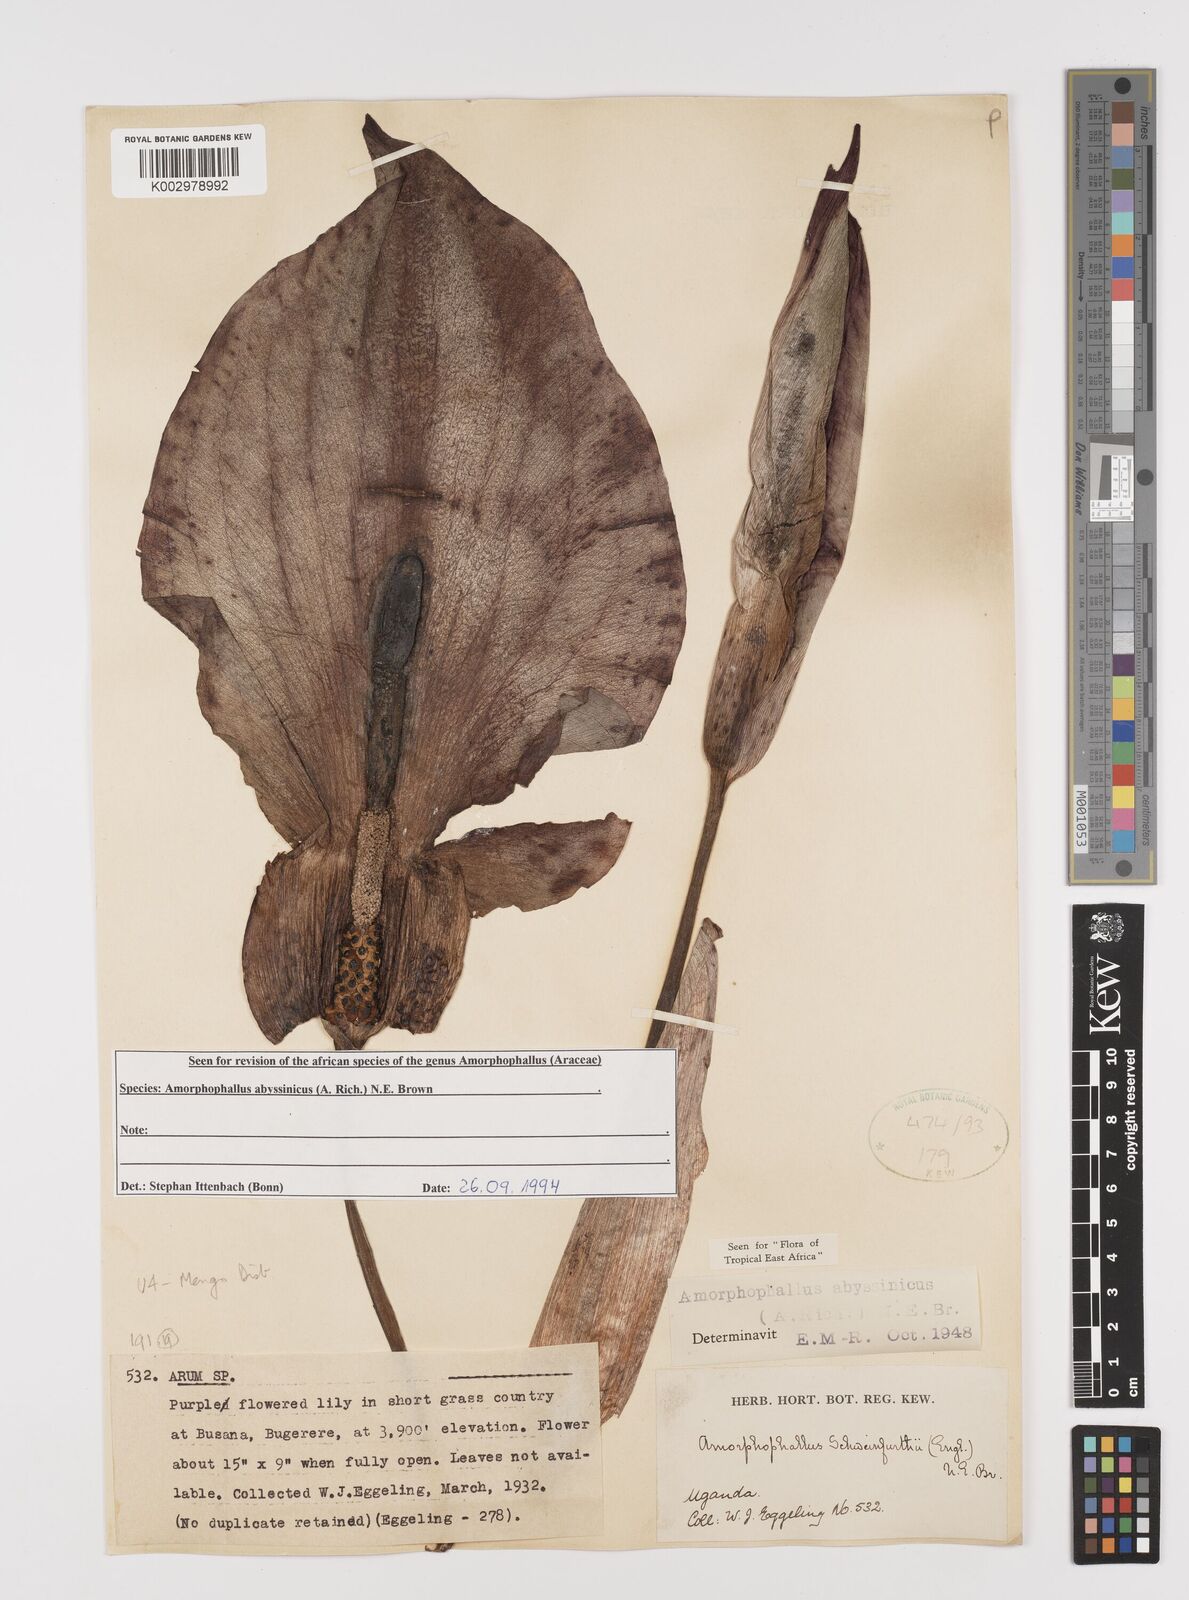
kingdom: Plantae
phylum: Tracheophyta
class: Liliopsida
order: Alismatales
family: Araceae
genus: Amorphophallus
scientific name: Amorphophallus abyssinicus
